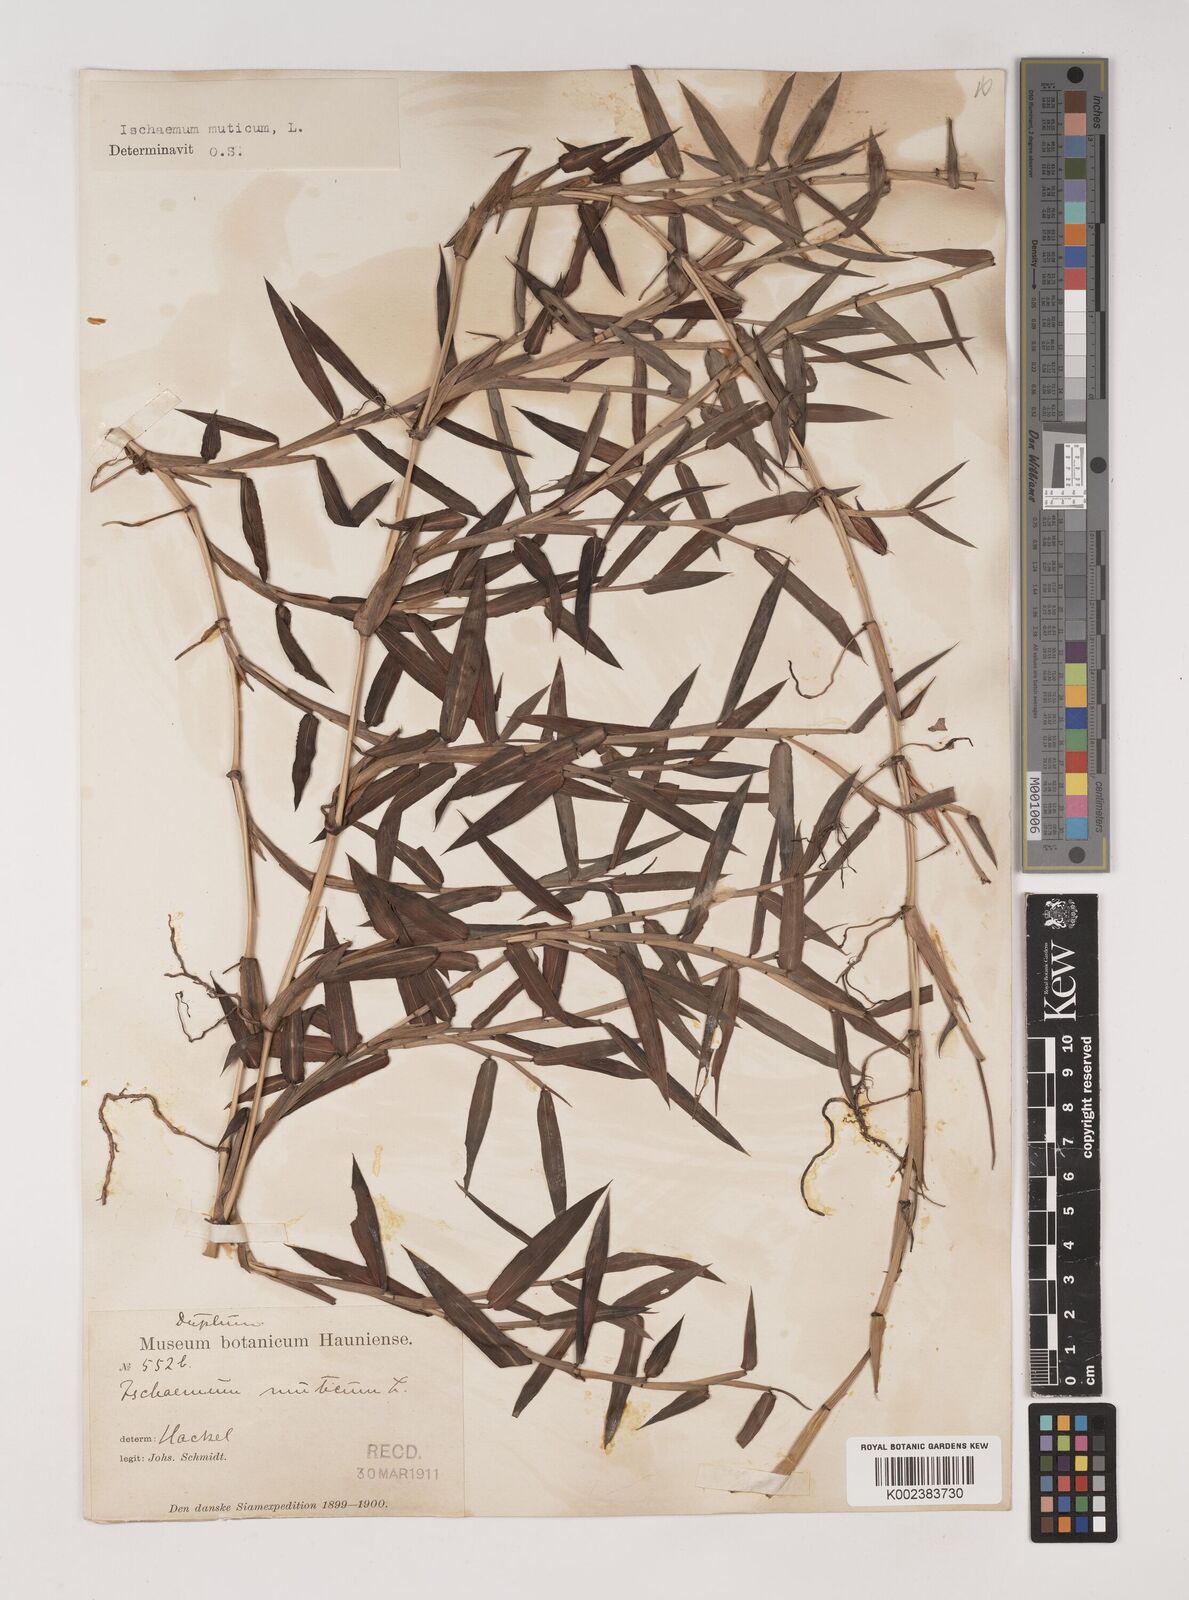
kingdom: Plantae
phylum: Tracheophyta
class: Liliopsida
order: Poales
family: Poaceae
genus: Ischaemum
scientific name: Ischaemum muticum
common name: Drought grass
